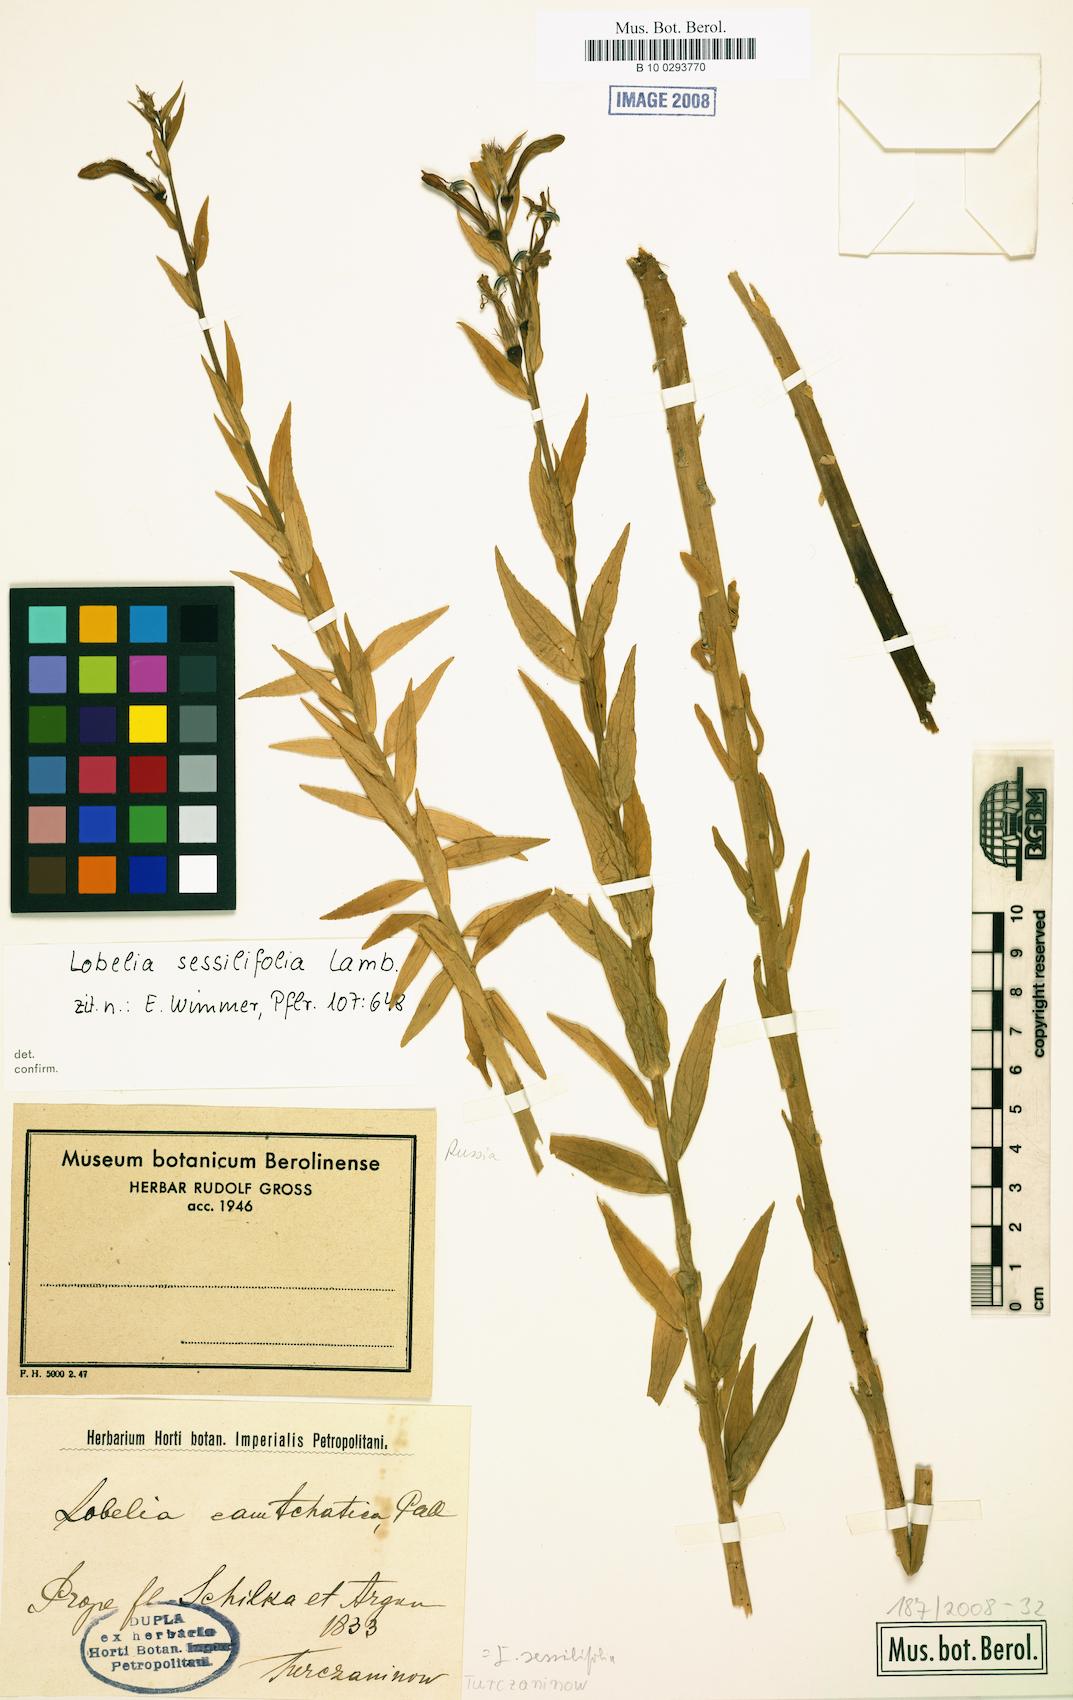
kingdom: Plantae
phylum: Tracheophyta
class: Magnoliopsida
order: Asterales
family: Campanulaceae
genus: Lobelia
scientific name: Lobelia sessilifolia
